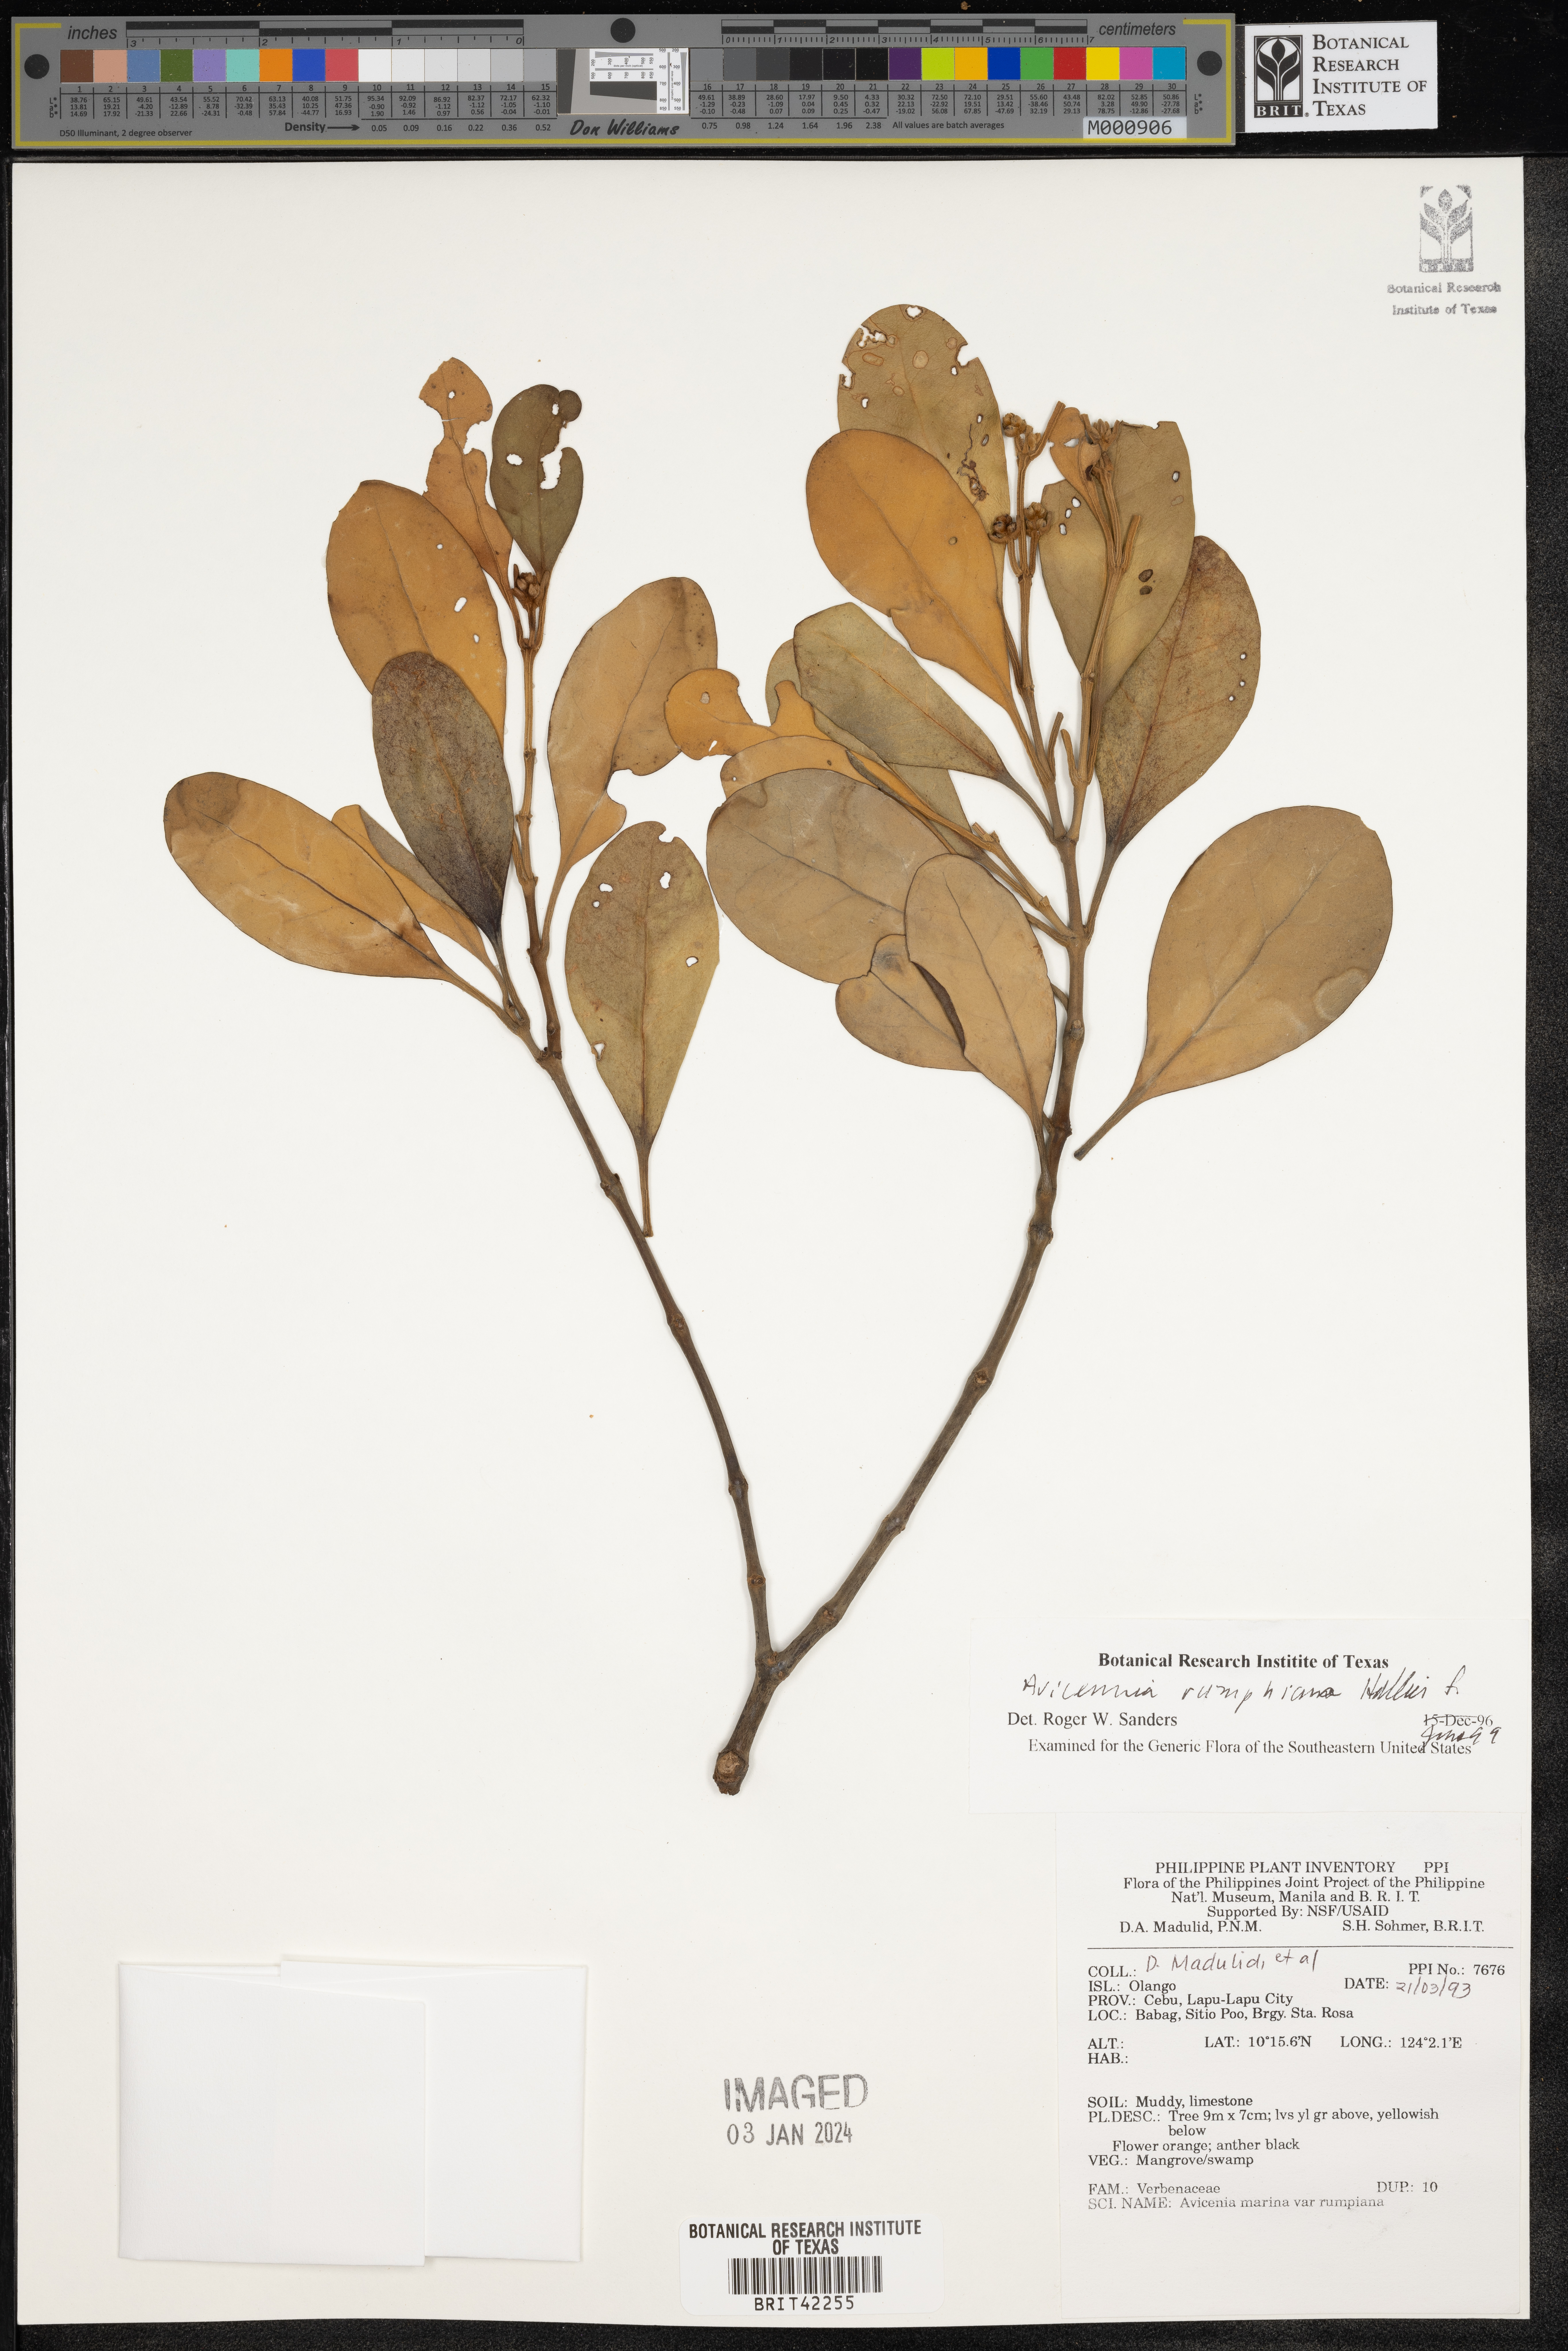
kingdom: Plantae
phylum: Tracheophyta
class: Magnoliopsida
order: Lamiales
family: Acanthaceae
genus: Avicennia
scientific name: Avicennia marina
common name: Gray mangrove
